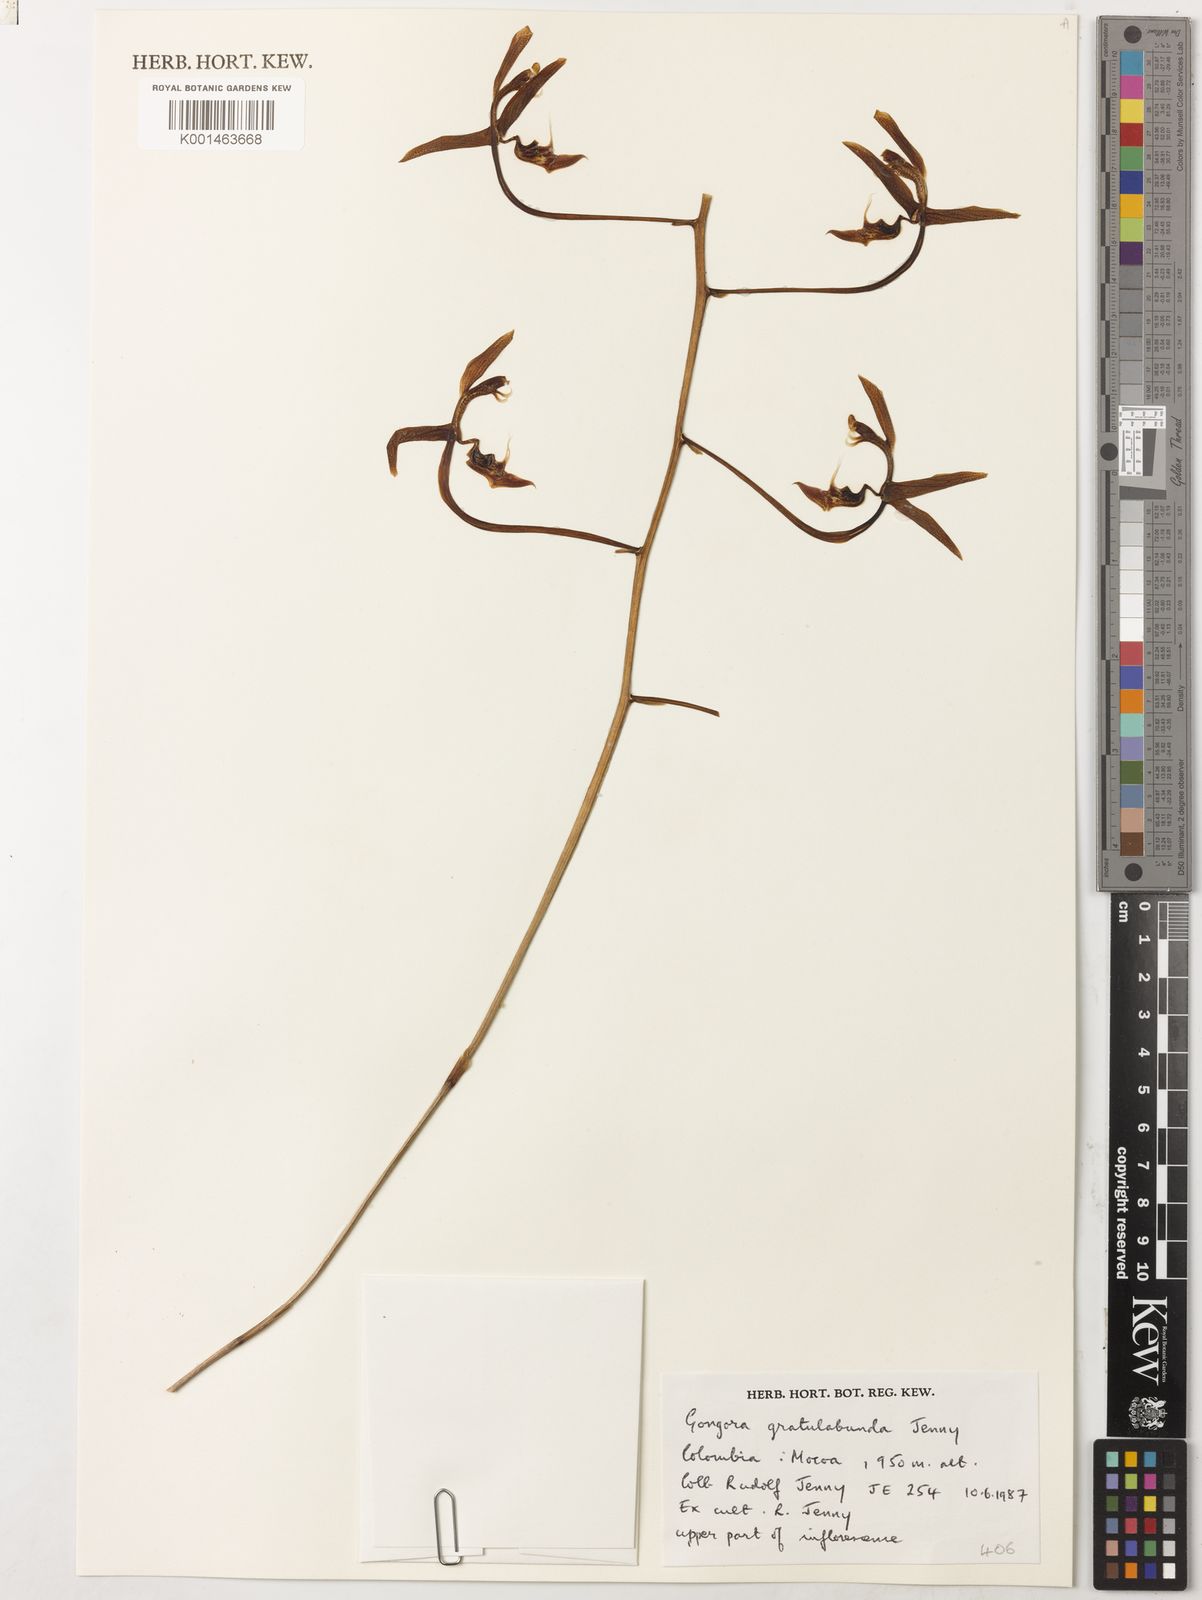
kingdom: Plantae
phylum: Tracheophyta
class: Liliopsida
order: Asparagales
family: Orchidaceae
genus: Gongora
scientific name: Gongora gratulabunda
